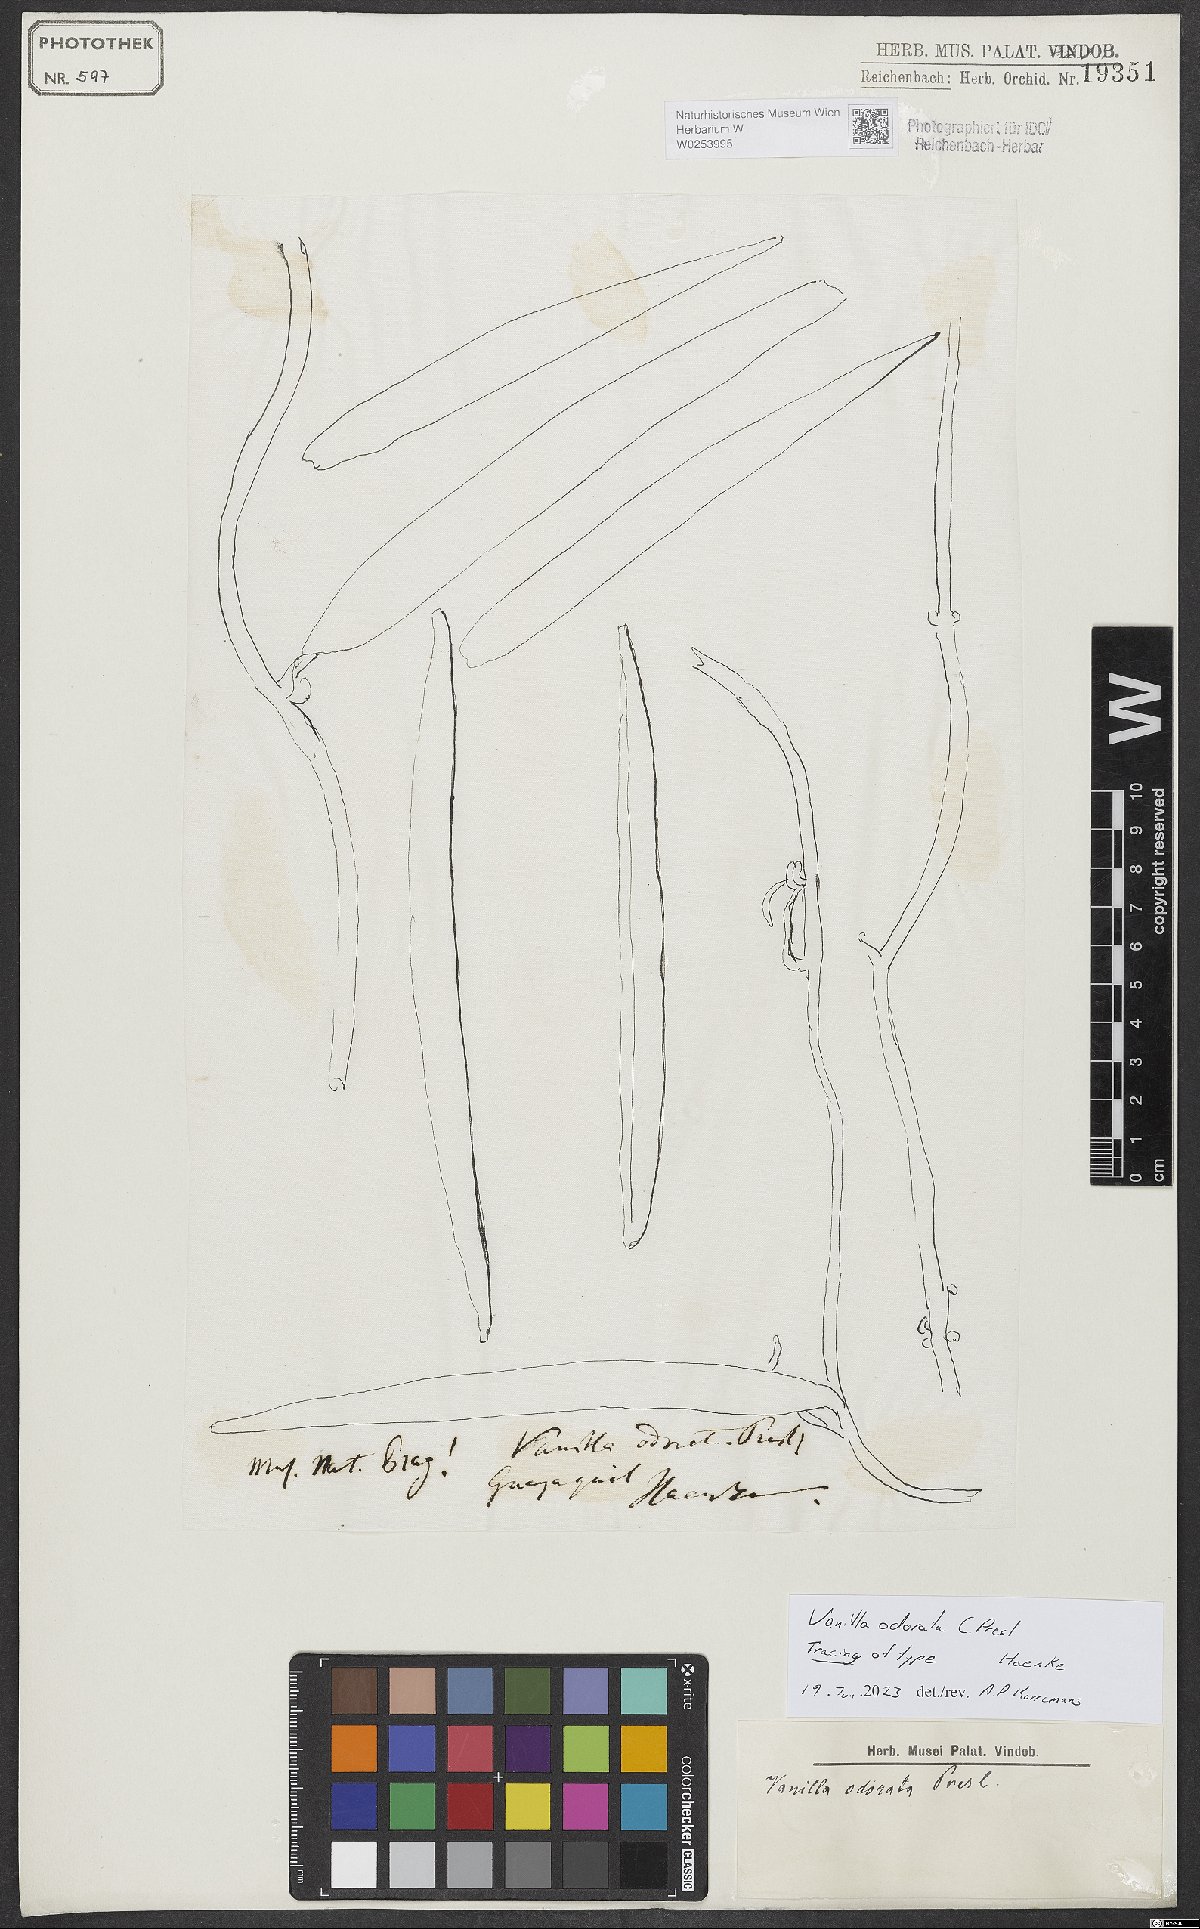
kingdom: Plantae
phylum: Tracheophyta
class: Liliopsida
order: Asparagales
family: Orchidaceae
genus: Vanilla
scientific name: Vanilla odorata
